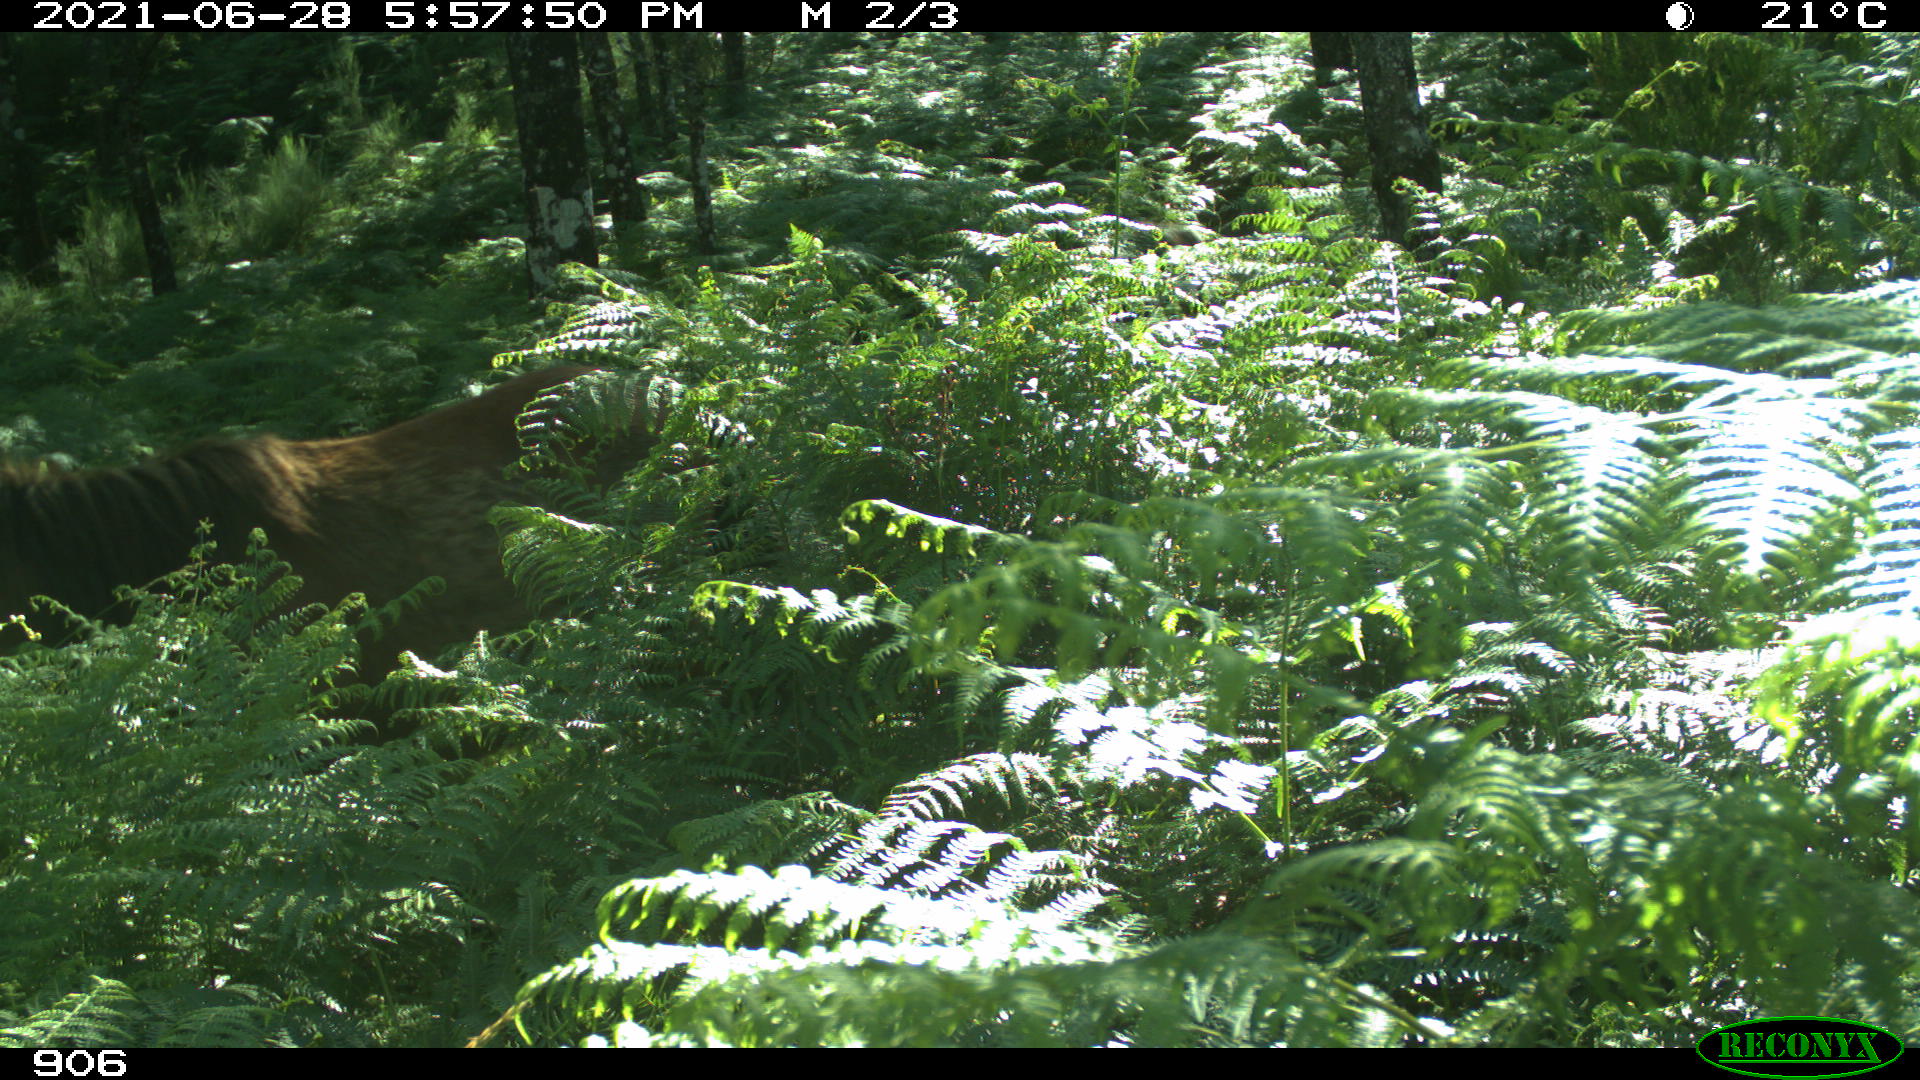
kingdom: Animalia
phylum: Chordata
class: Mammalia
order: Perissodactyla
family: Equidae
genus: Equus
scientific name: Equus caballus
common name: Horse
